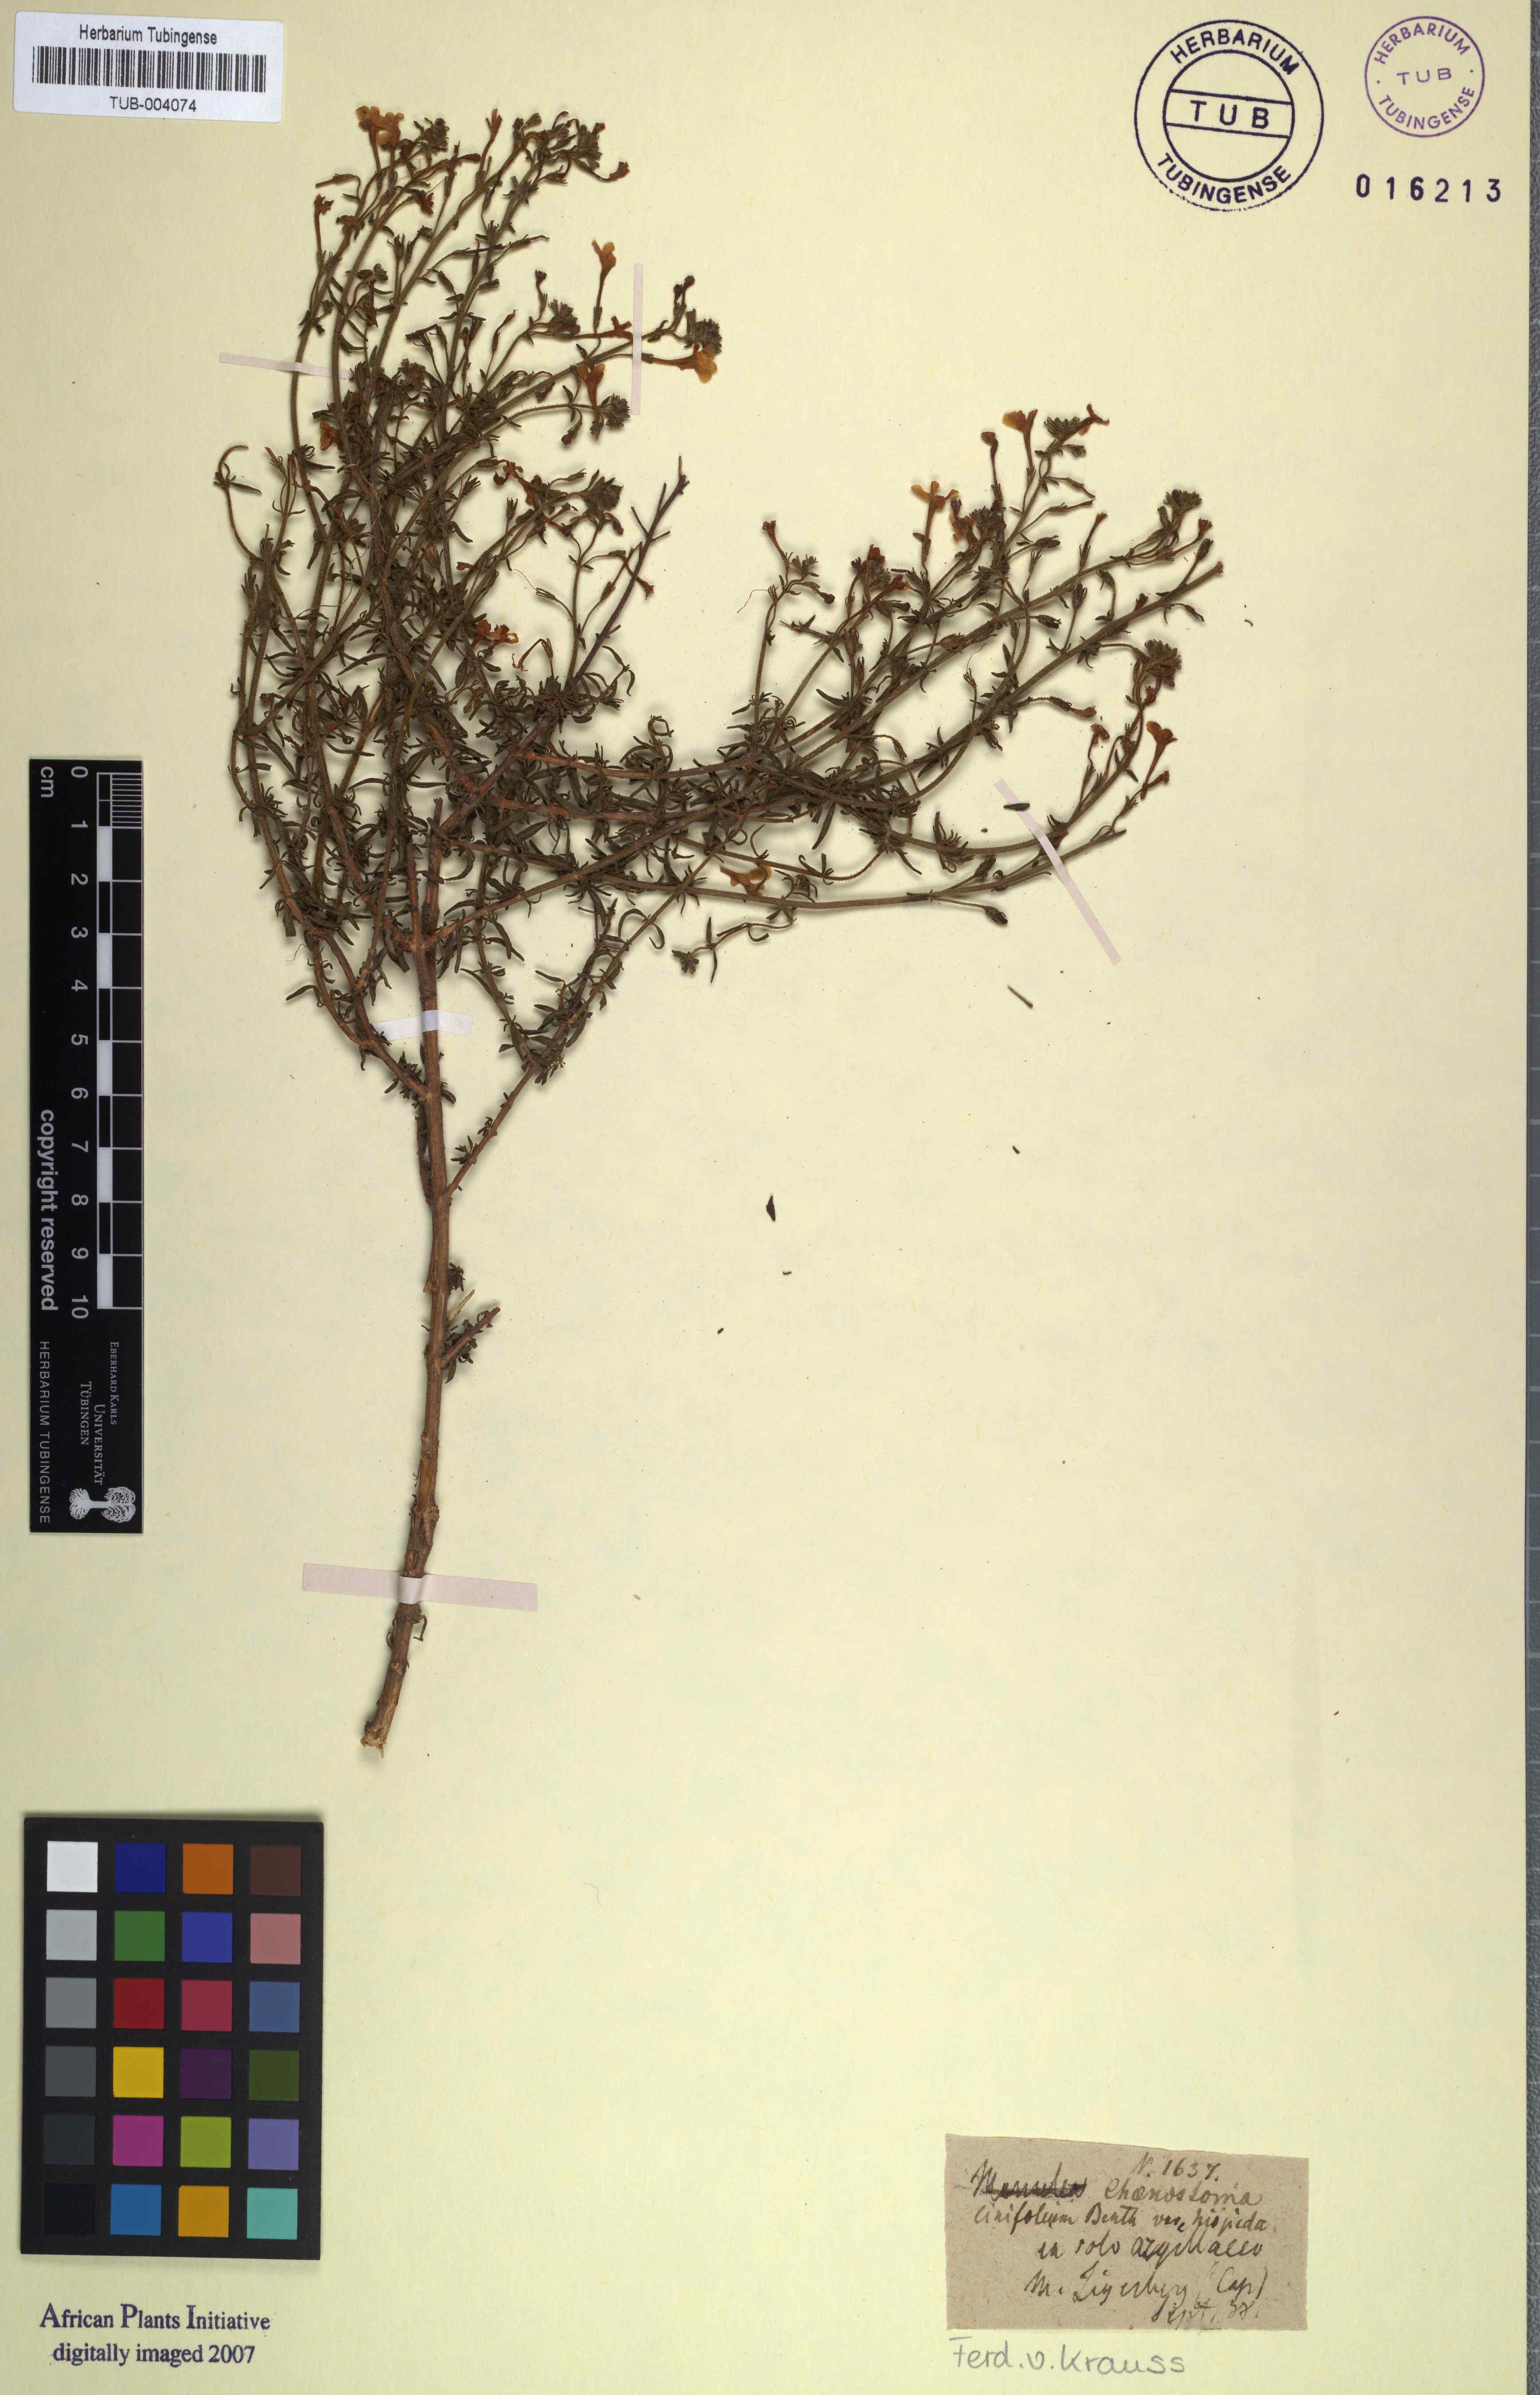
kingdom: Plantae
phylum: Tracheophyta
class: Magnoliopsida
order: Lamiales
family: Scrophulariaceae
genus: Chaenostoma
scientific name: Chaenostoma uncinatum
